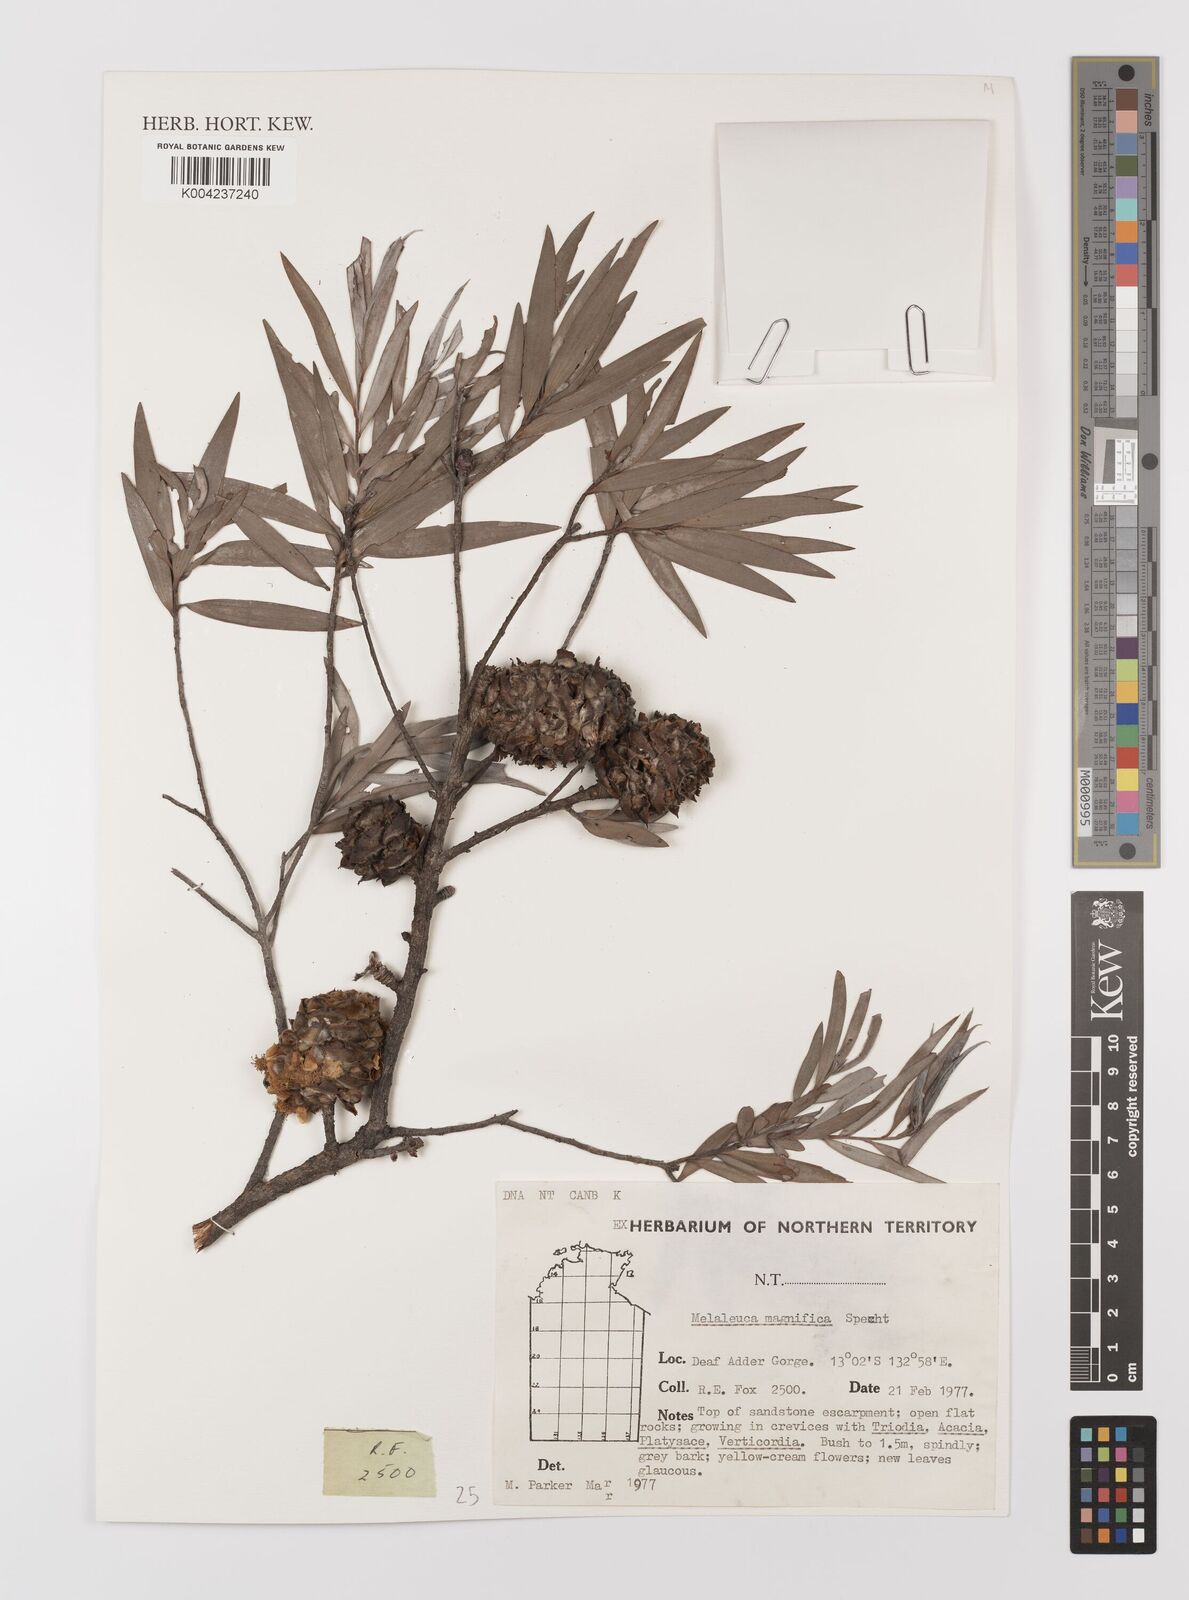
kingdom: Plantae
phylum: Tracheophyta
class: Magnoliopsida
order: Myrtales
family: Myrtaceae
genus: Asteromyrtus
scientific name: Asteromyrtus magnifica
